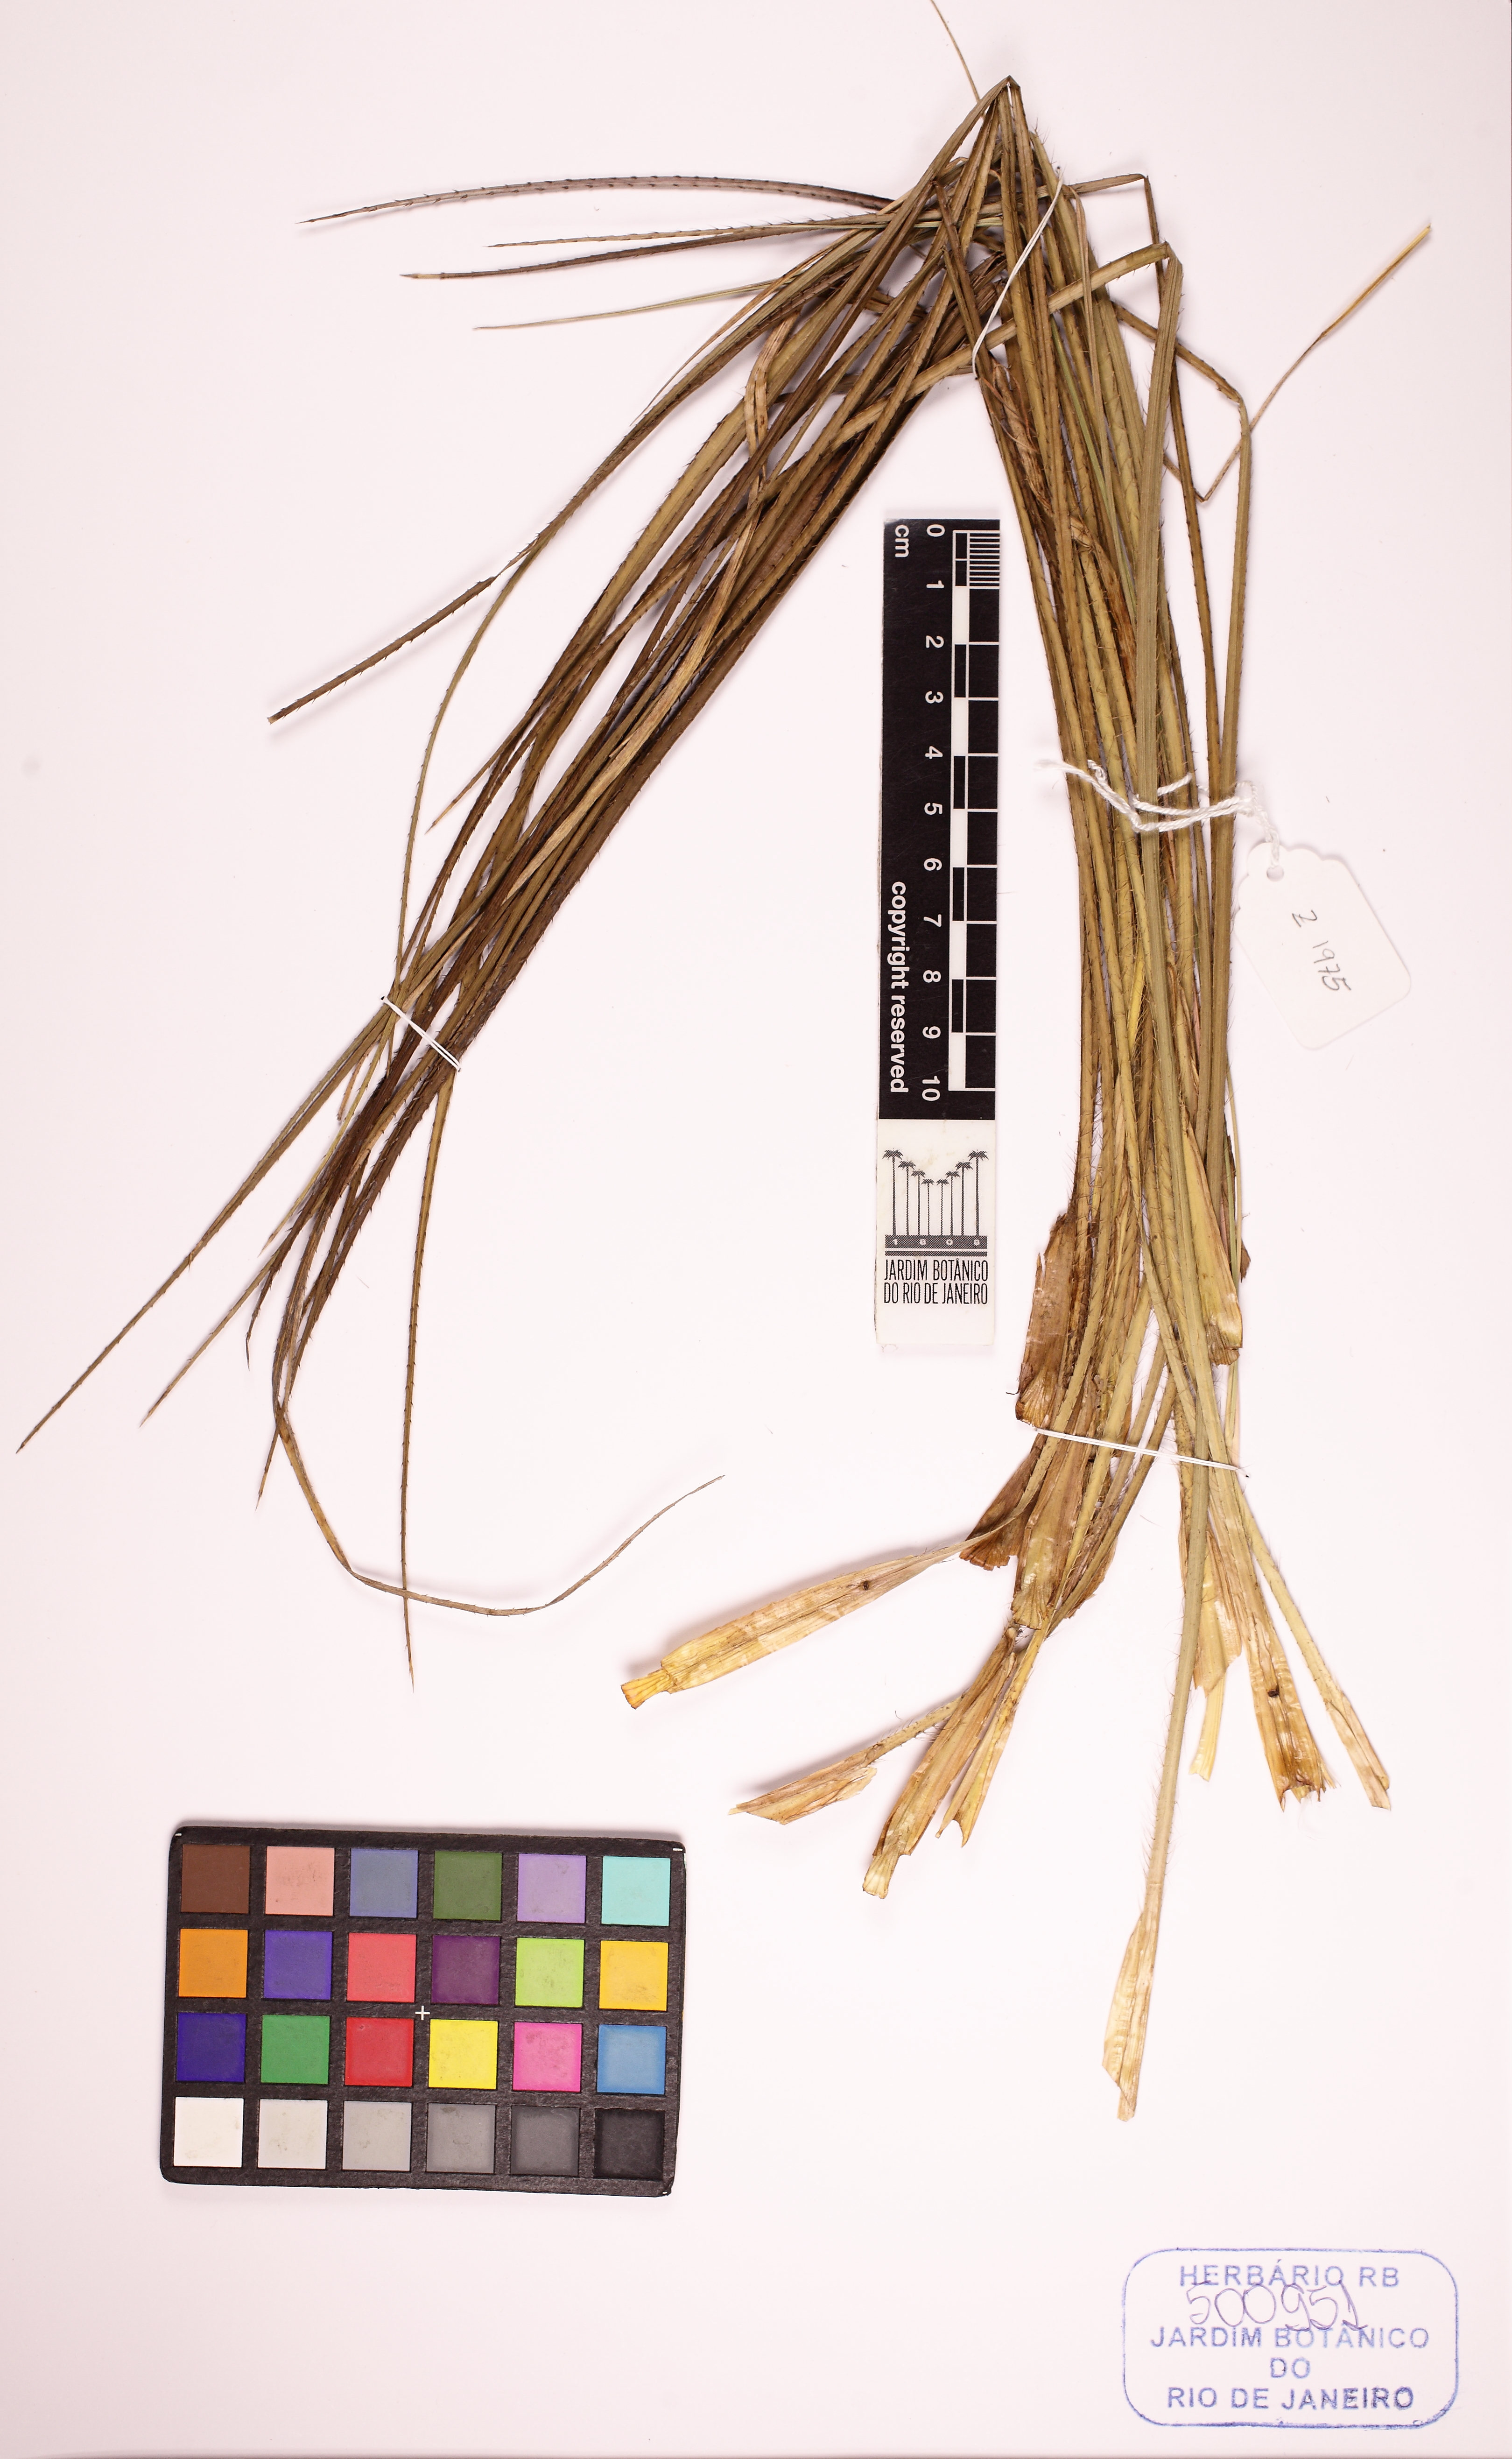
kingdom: Plantae
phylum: Tracheophyta
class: Magnoliopsida
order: Apiales
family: Apiaceae
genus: Eryngium
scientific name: Eryngium canaliculatum
